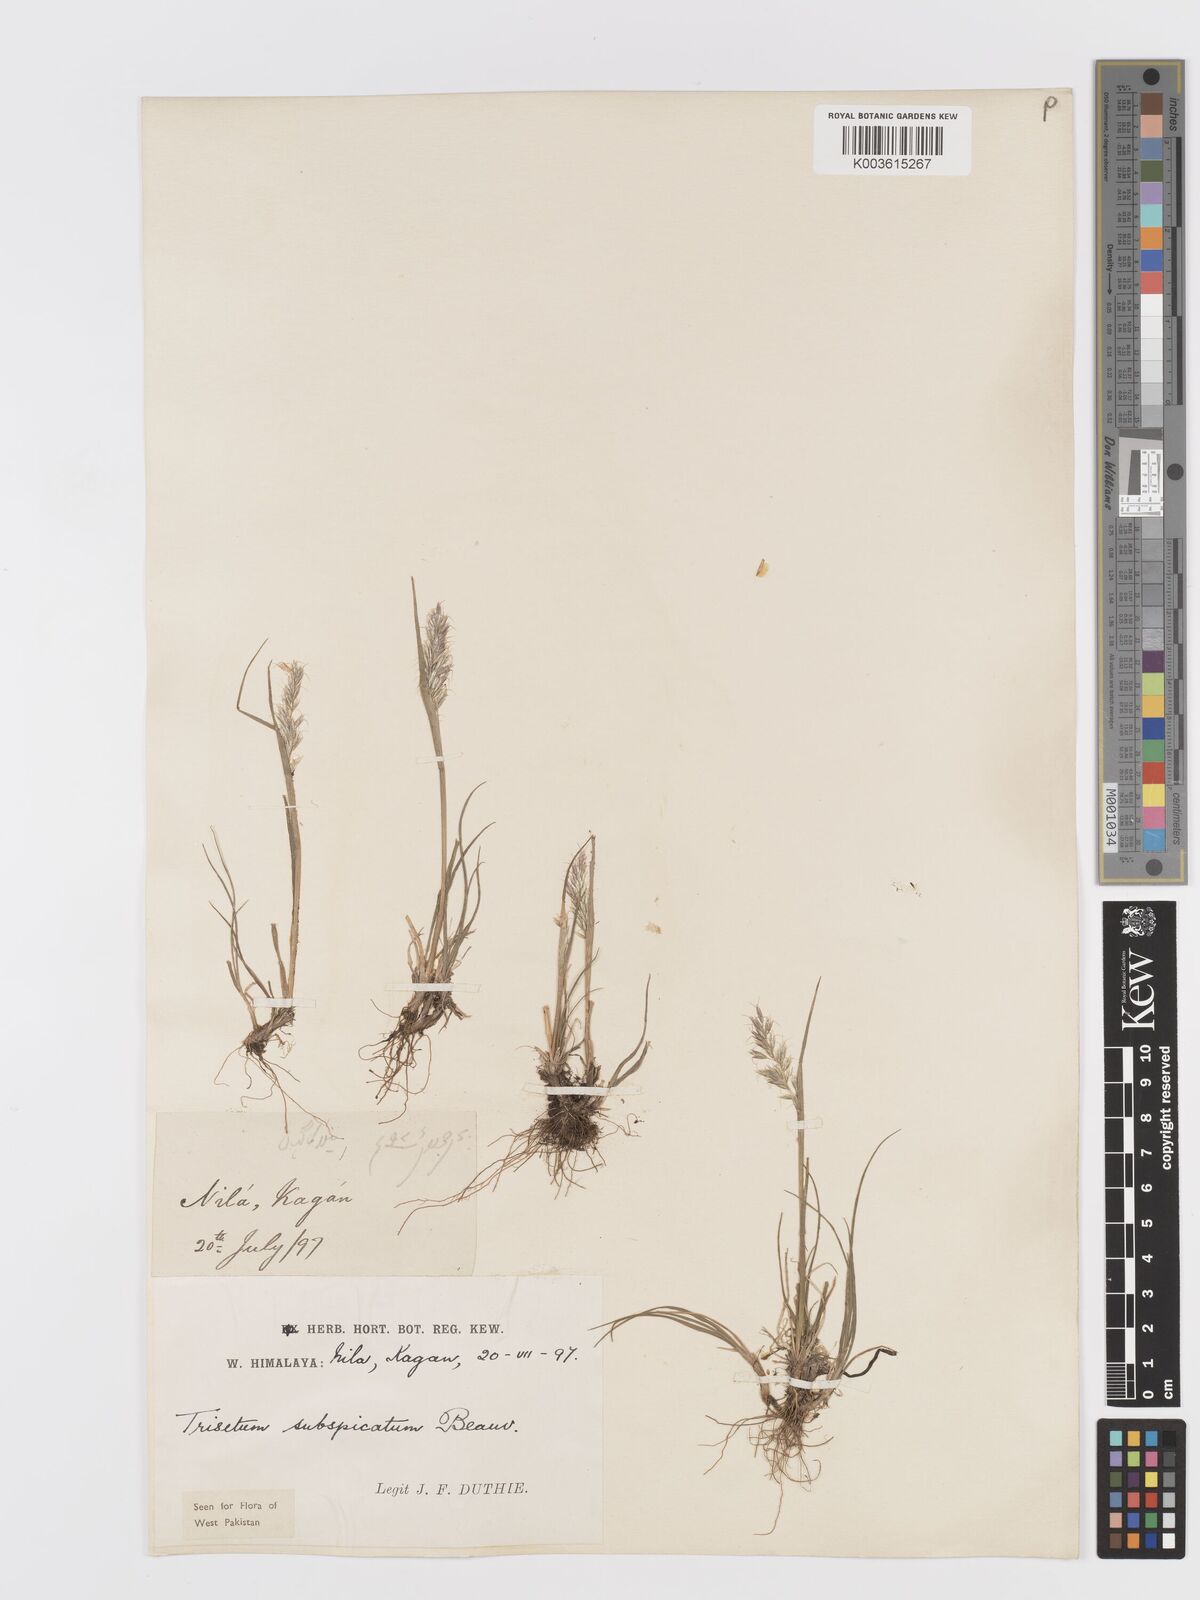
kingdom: Plantae
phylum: Tracheophyta
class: Liliopsida
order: Poales
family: Poaceae
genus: Koeleria
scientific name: Koeleria spicata
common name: Mountain trisetum
